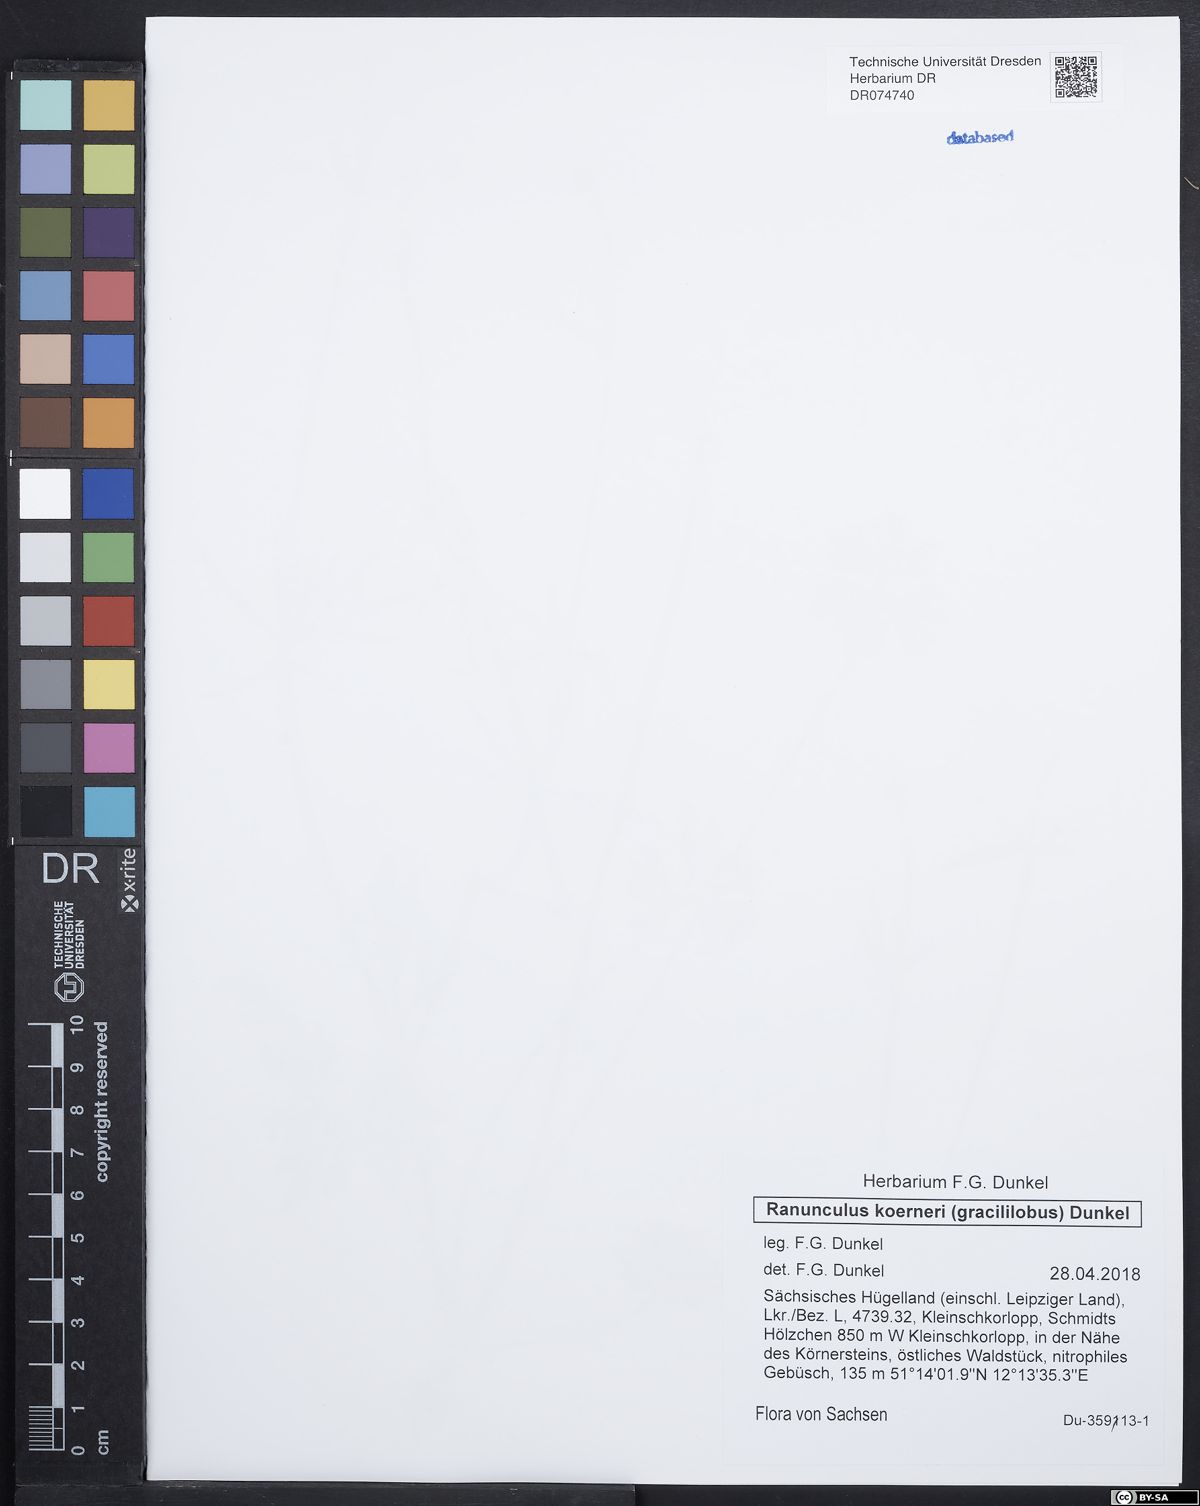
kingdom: Plantae
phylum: Tracheophyta
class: Magnoliopsida
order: Ranunculales
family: Ranunculaceae
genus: Ranunculus
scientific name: Ranunculus koerneri
